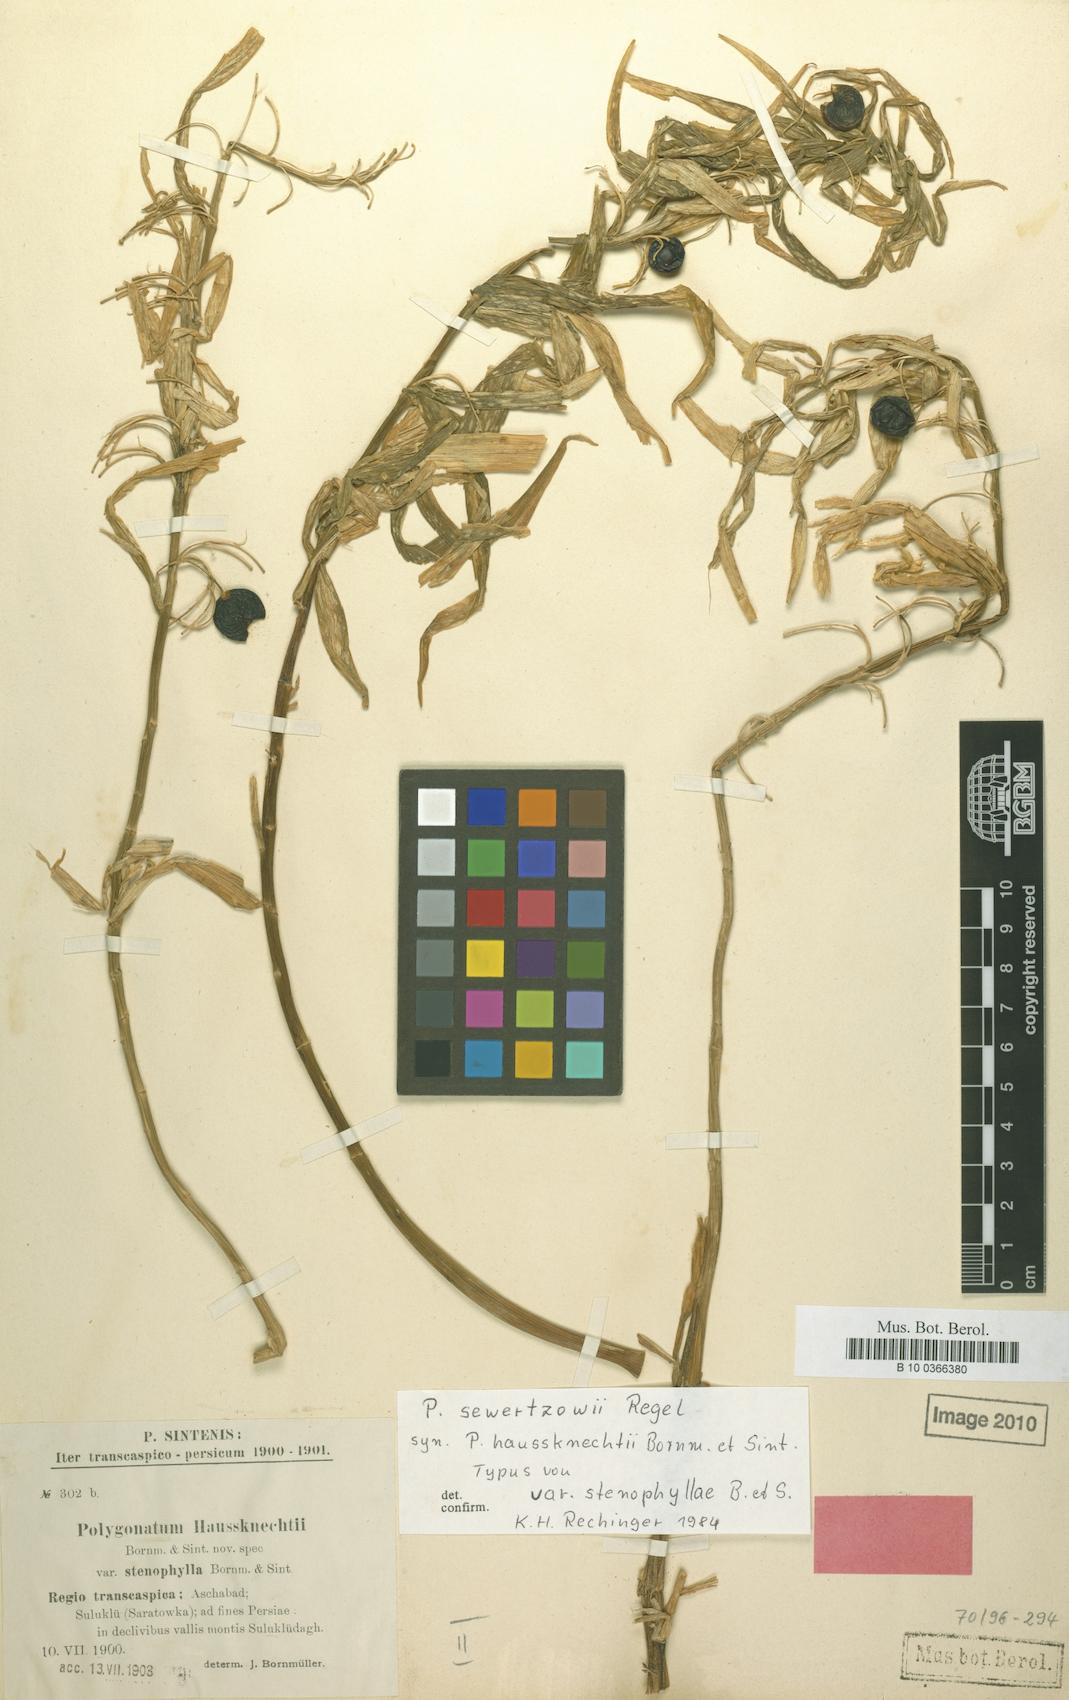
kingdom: Plantae
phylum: Tracheophyta
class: Liliopsida
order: Asparagales
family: Asparagaceae
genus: Polygonatum
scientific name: Polygonatum sewerzowii
